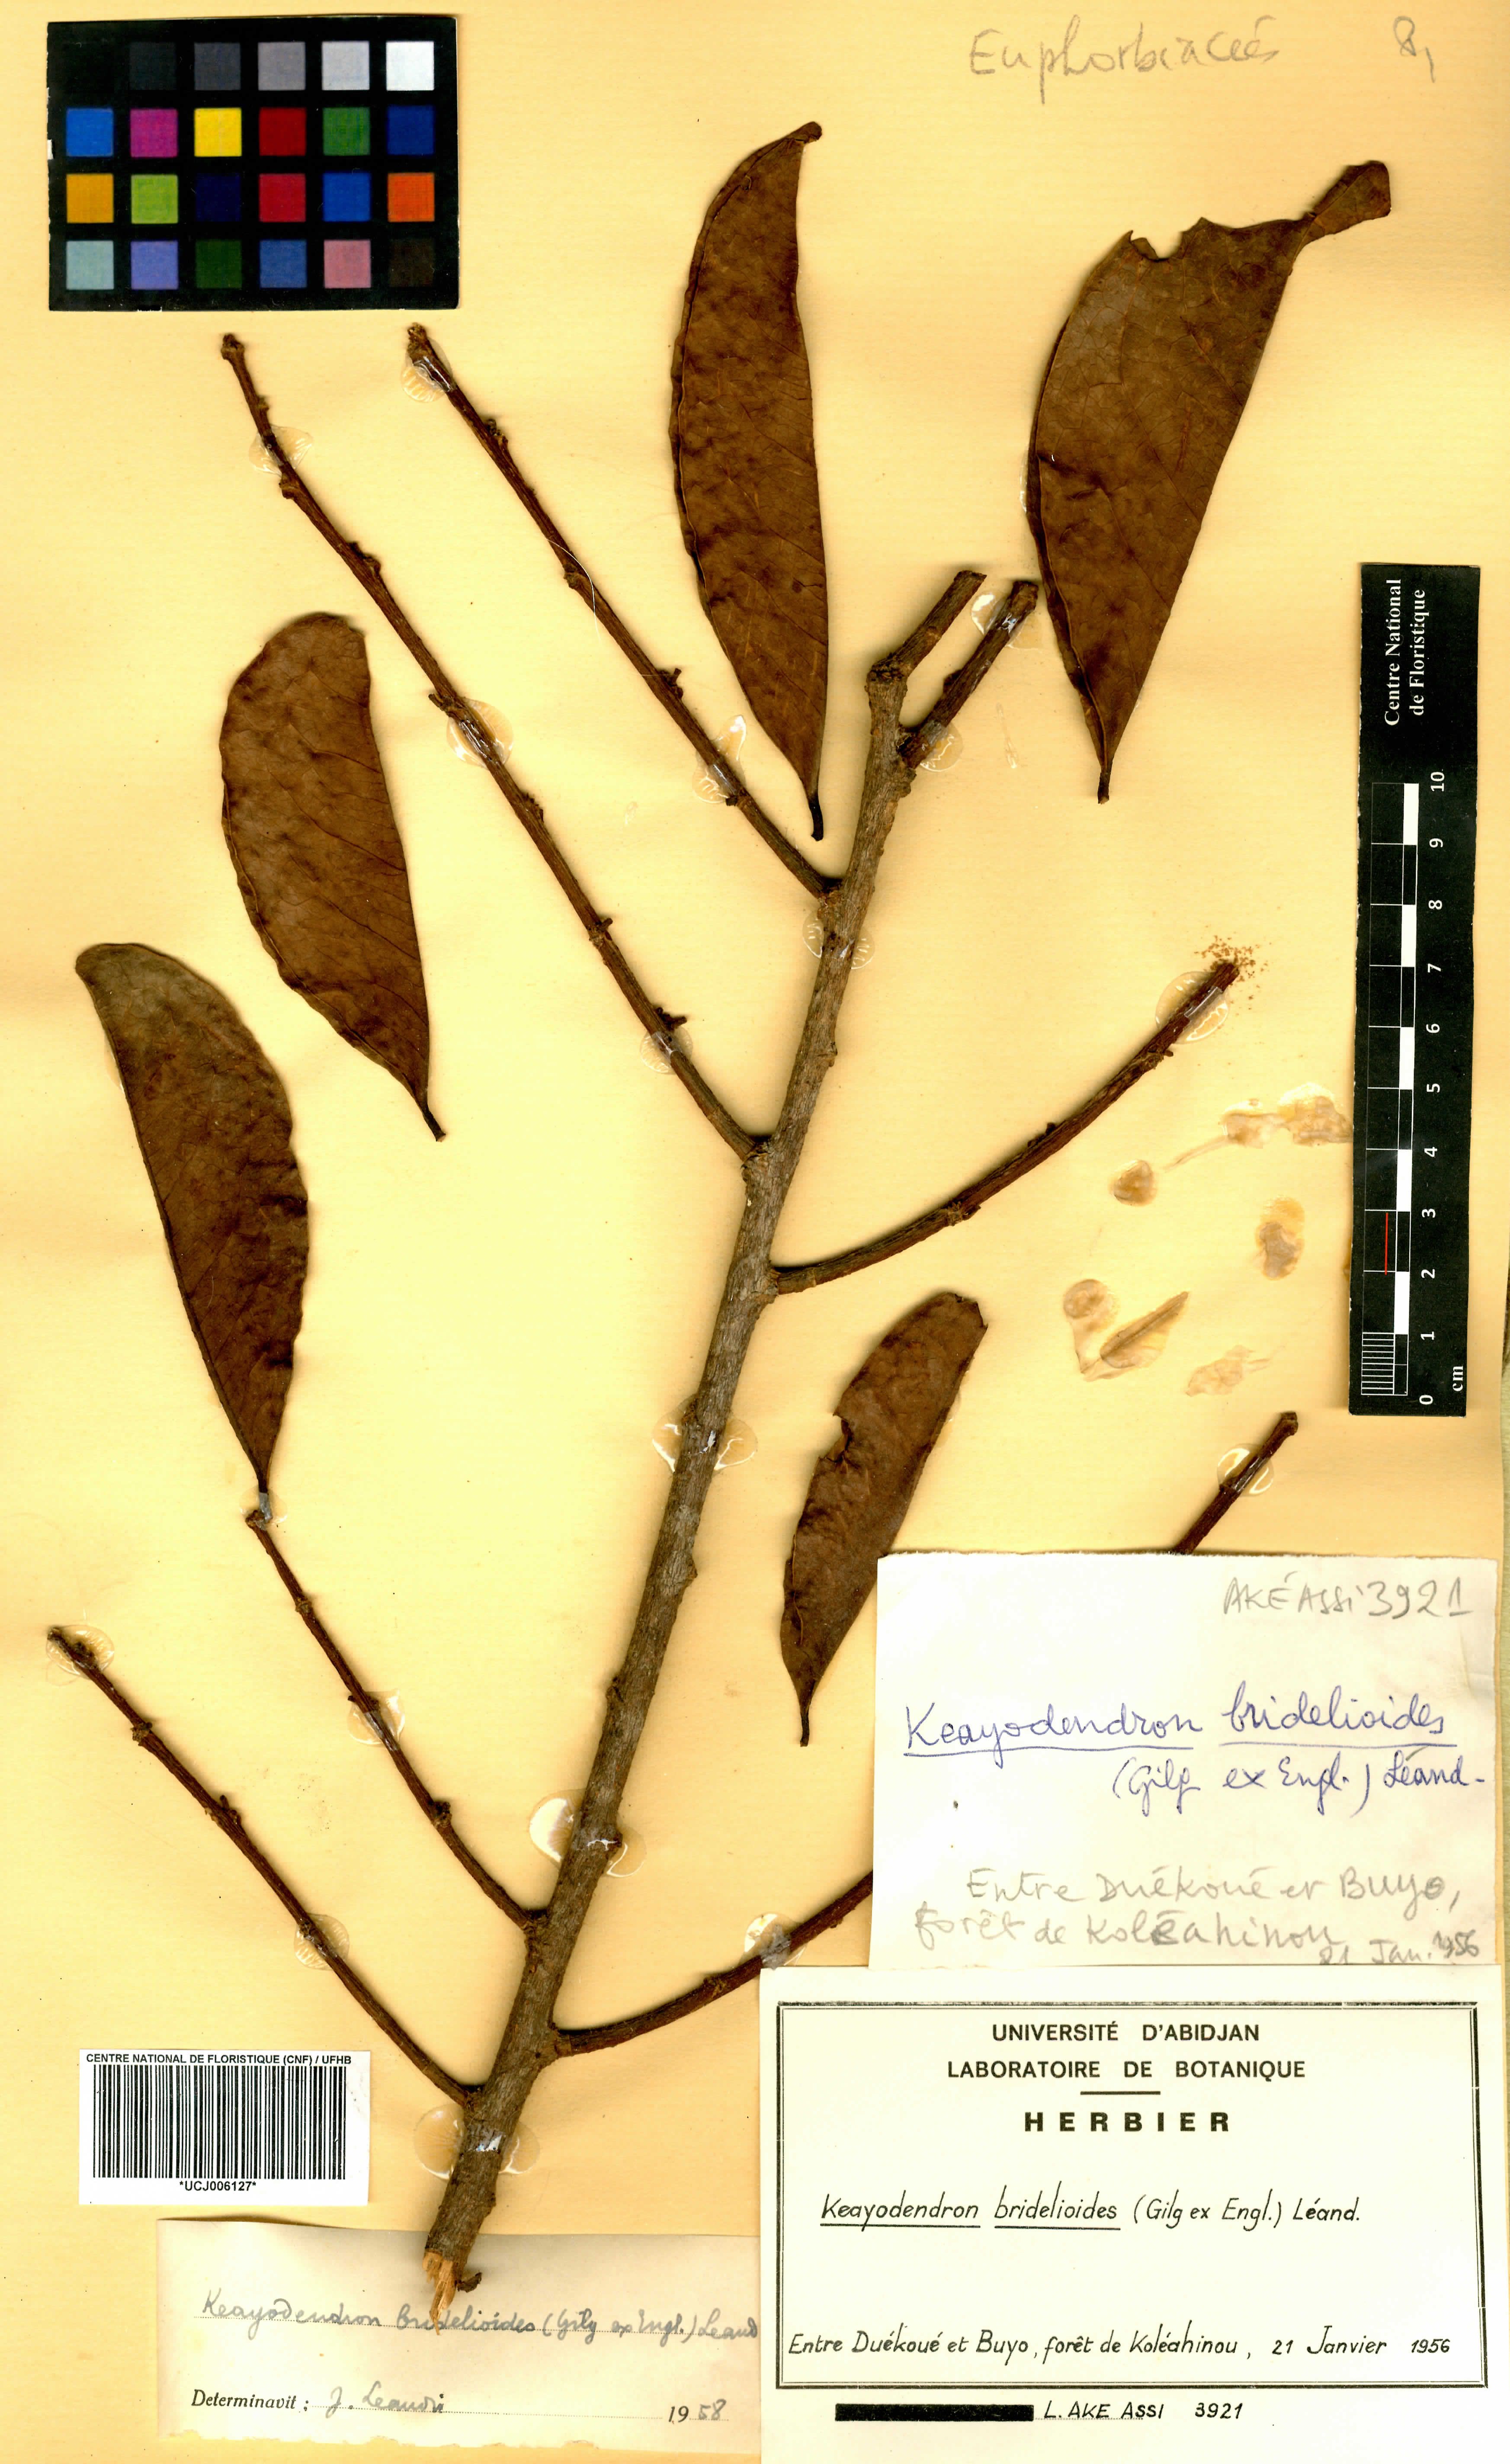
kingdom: Plantae
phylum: Tracheophyta
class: Magnoliopsida
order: Malpighiales
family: Phyllanthaceae
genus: Keayodendron
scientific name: Keayodendron bridelioides
